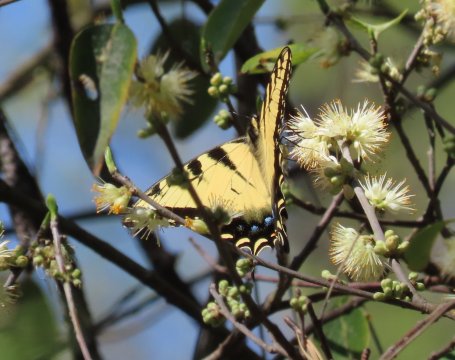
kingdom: Animalia
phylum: Arthropoda
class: Insecta
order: Lepidoptera
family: Papilionidae
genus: Pterourus
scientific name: Pterourus glaucus
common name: Eastern Tiger Swallowtail
